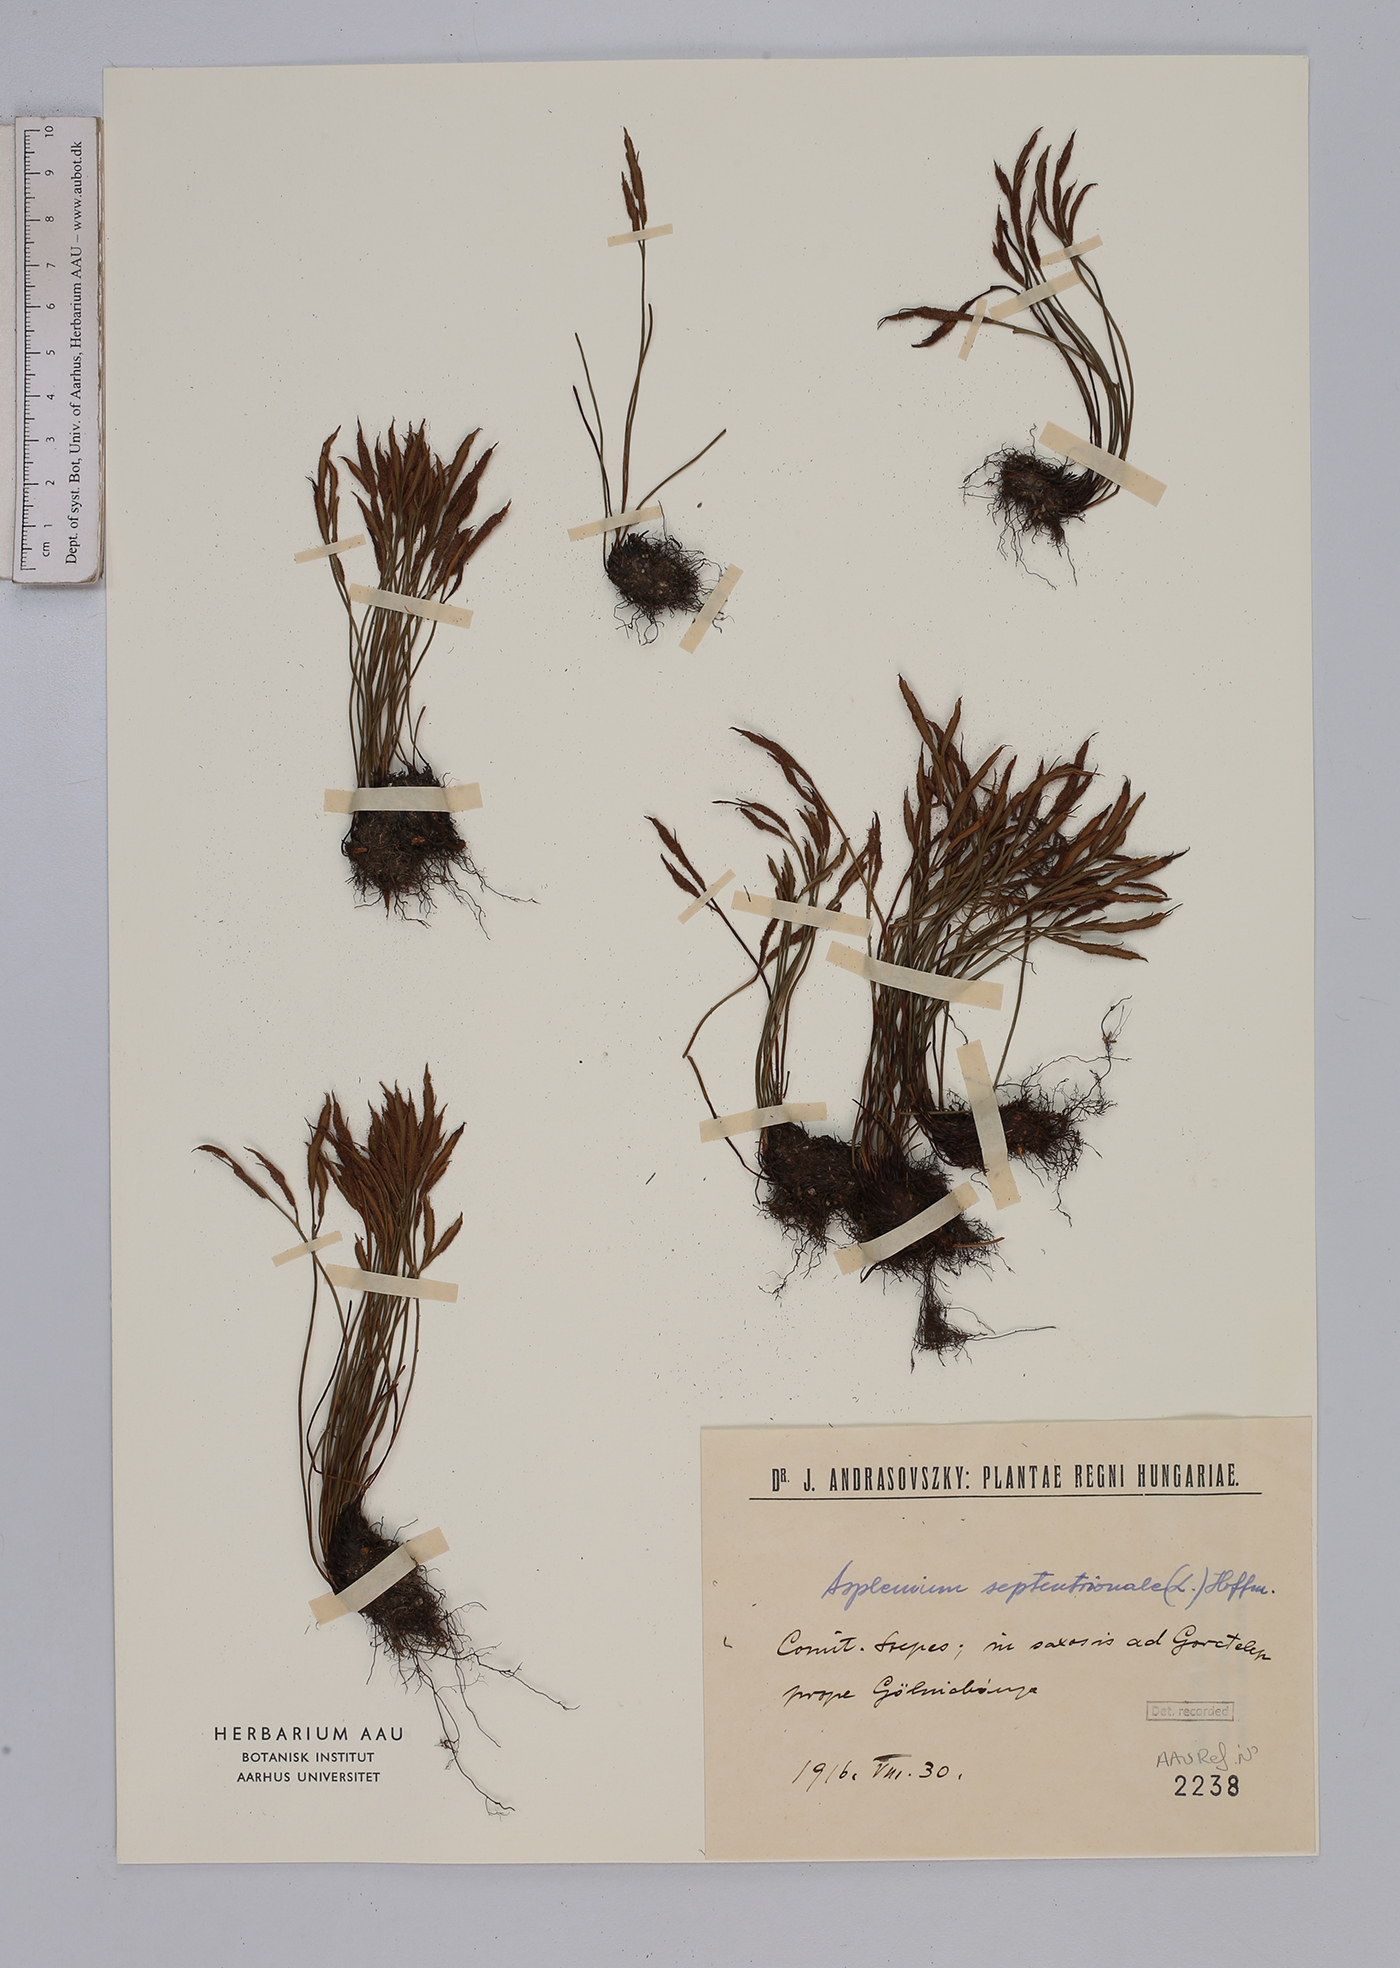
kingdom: Plantae
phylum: Tracheophyta
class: Polypodiopsida
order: Polypodiales
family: Aspleniaceae
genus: Asplenium
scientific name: Asplenium septentrionale
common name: Forked spleenwort
